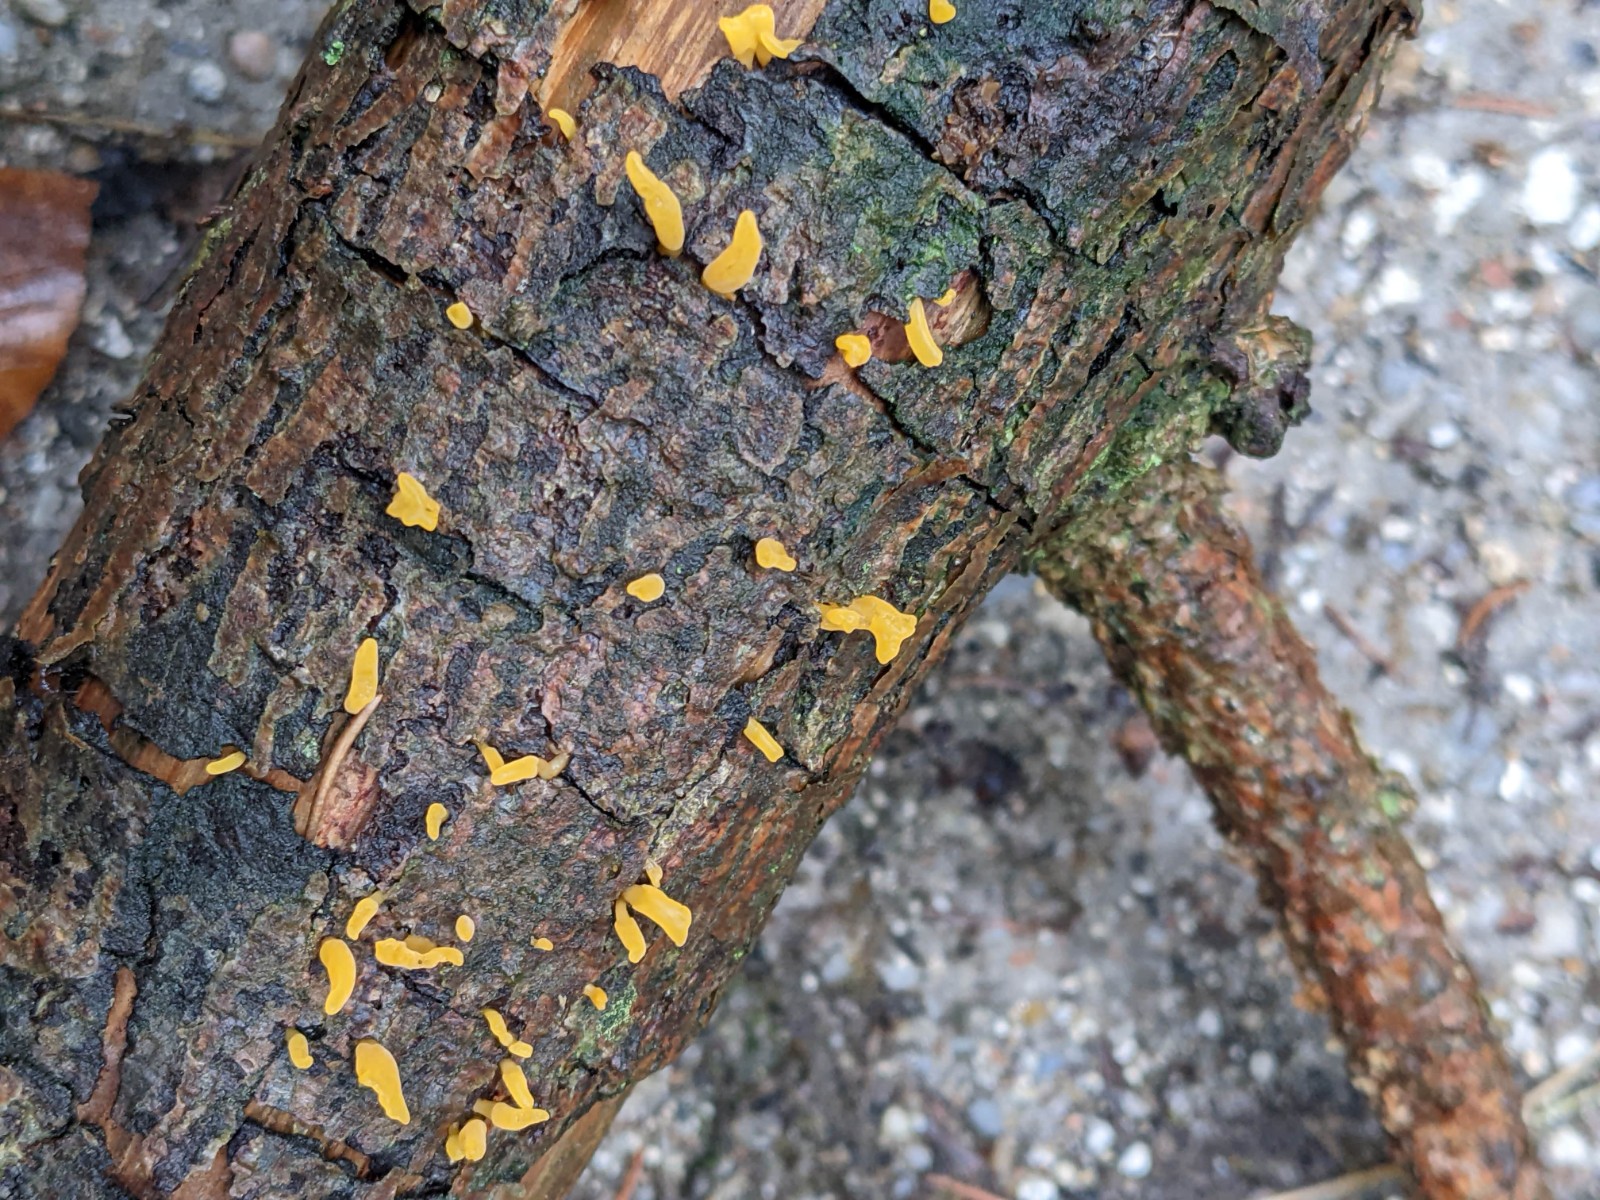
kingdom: Fungi
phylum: Basidiomycota
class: Dacrymycetes
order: Dacrymycetales
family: Dacrymycetaceae
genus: Calocera
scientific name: Calocera furcata
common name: fyrre-guldgaffel
